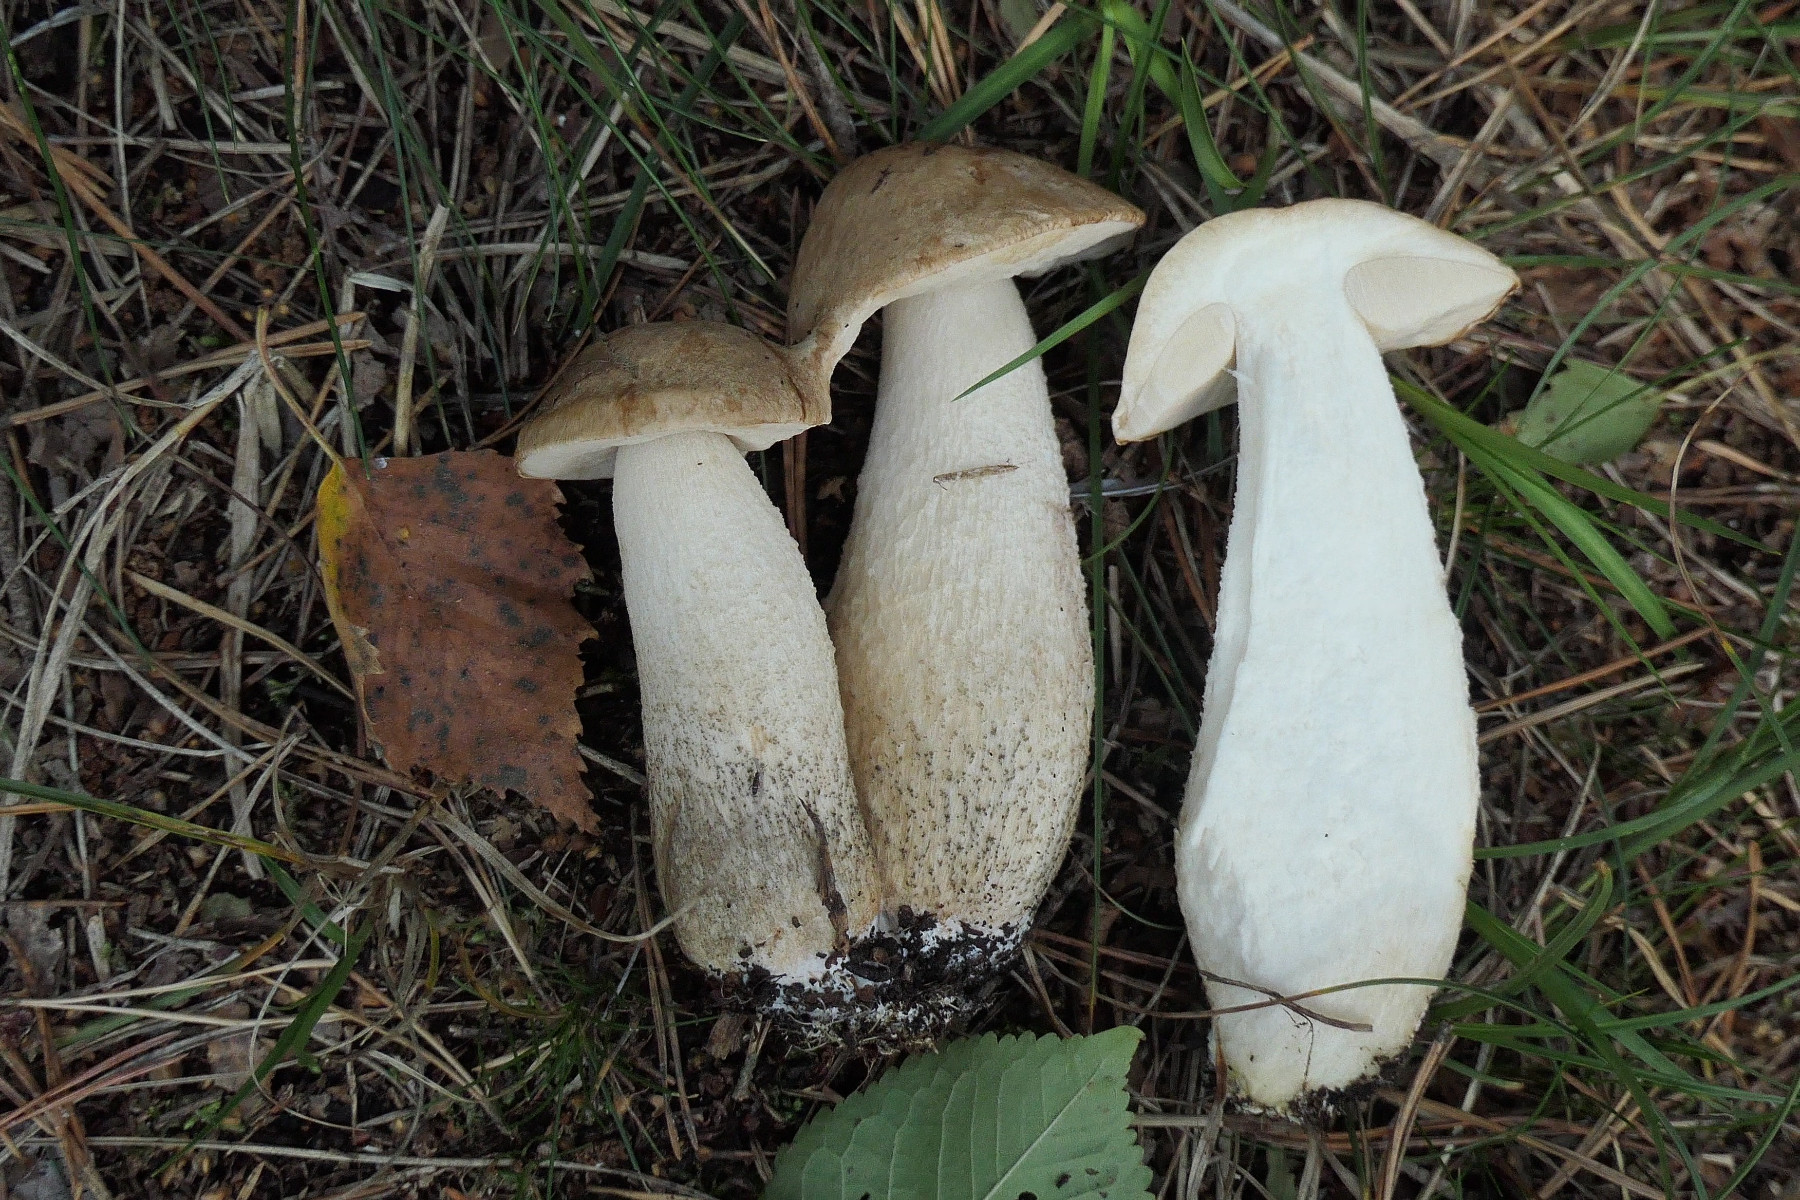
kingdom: Fungi
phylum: Basidiomycota
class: Agaricomycetes
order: Boletales
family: Boletaceae
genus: Leccinum
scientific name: Leccinum cyaneobasileucum
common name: almindelig skælrørhat
